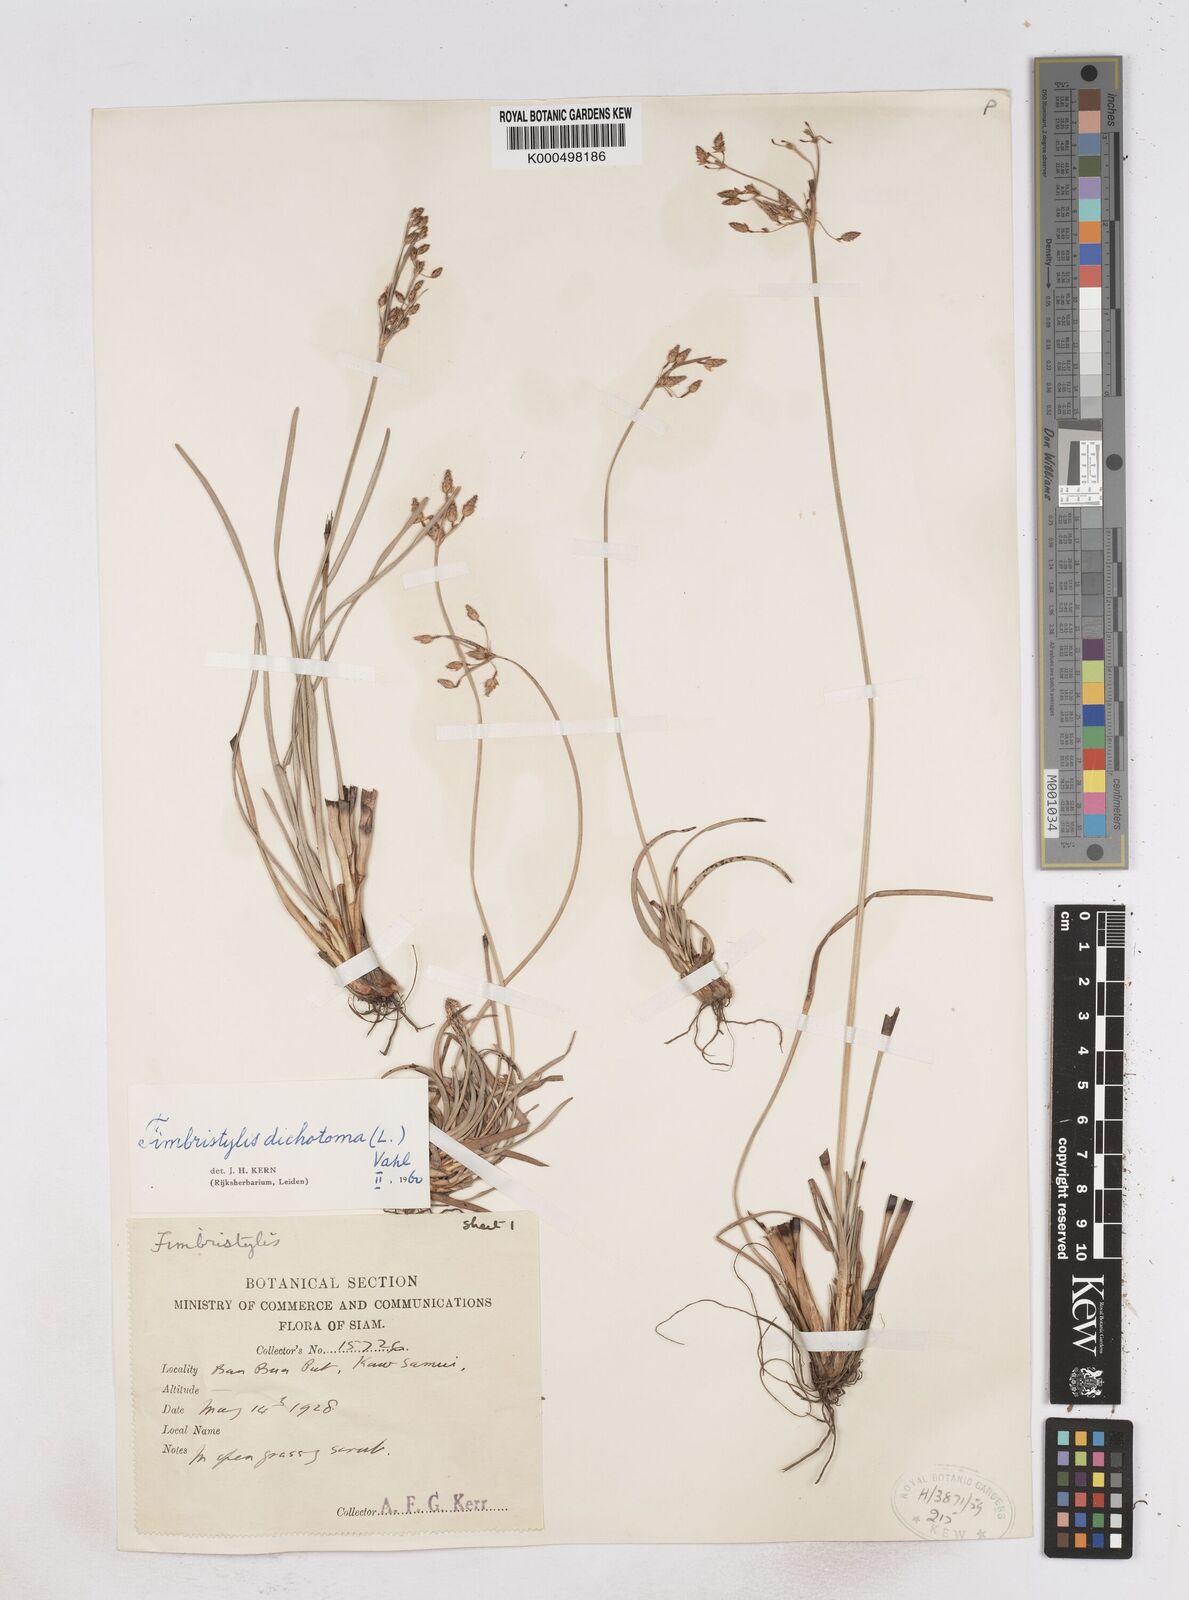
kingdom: Plantae
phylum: Tracheophyta
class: Liliopsida
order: Poales
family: Cyperaceae
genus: Fimbristylis
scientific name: Fimbristylis dichotoma
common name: Forked fimbry
